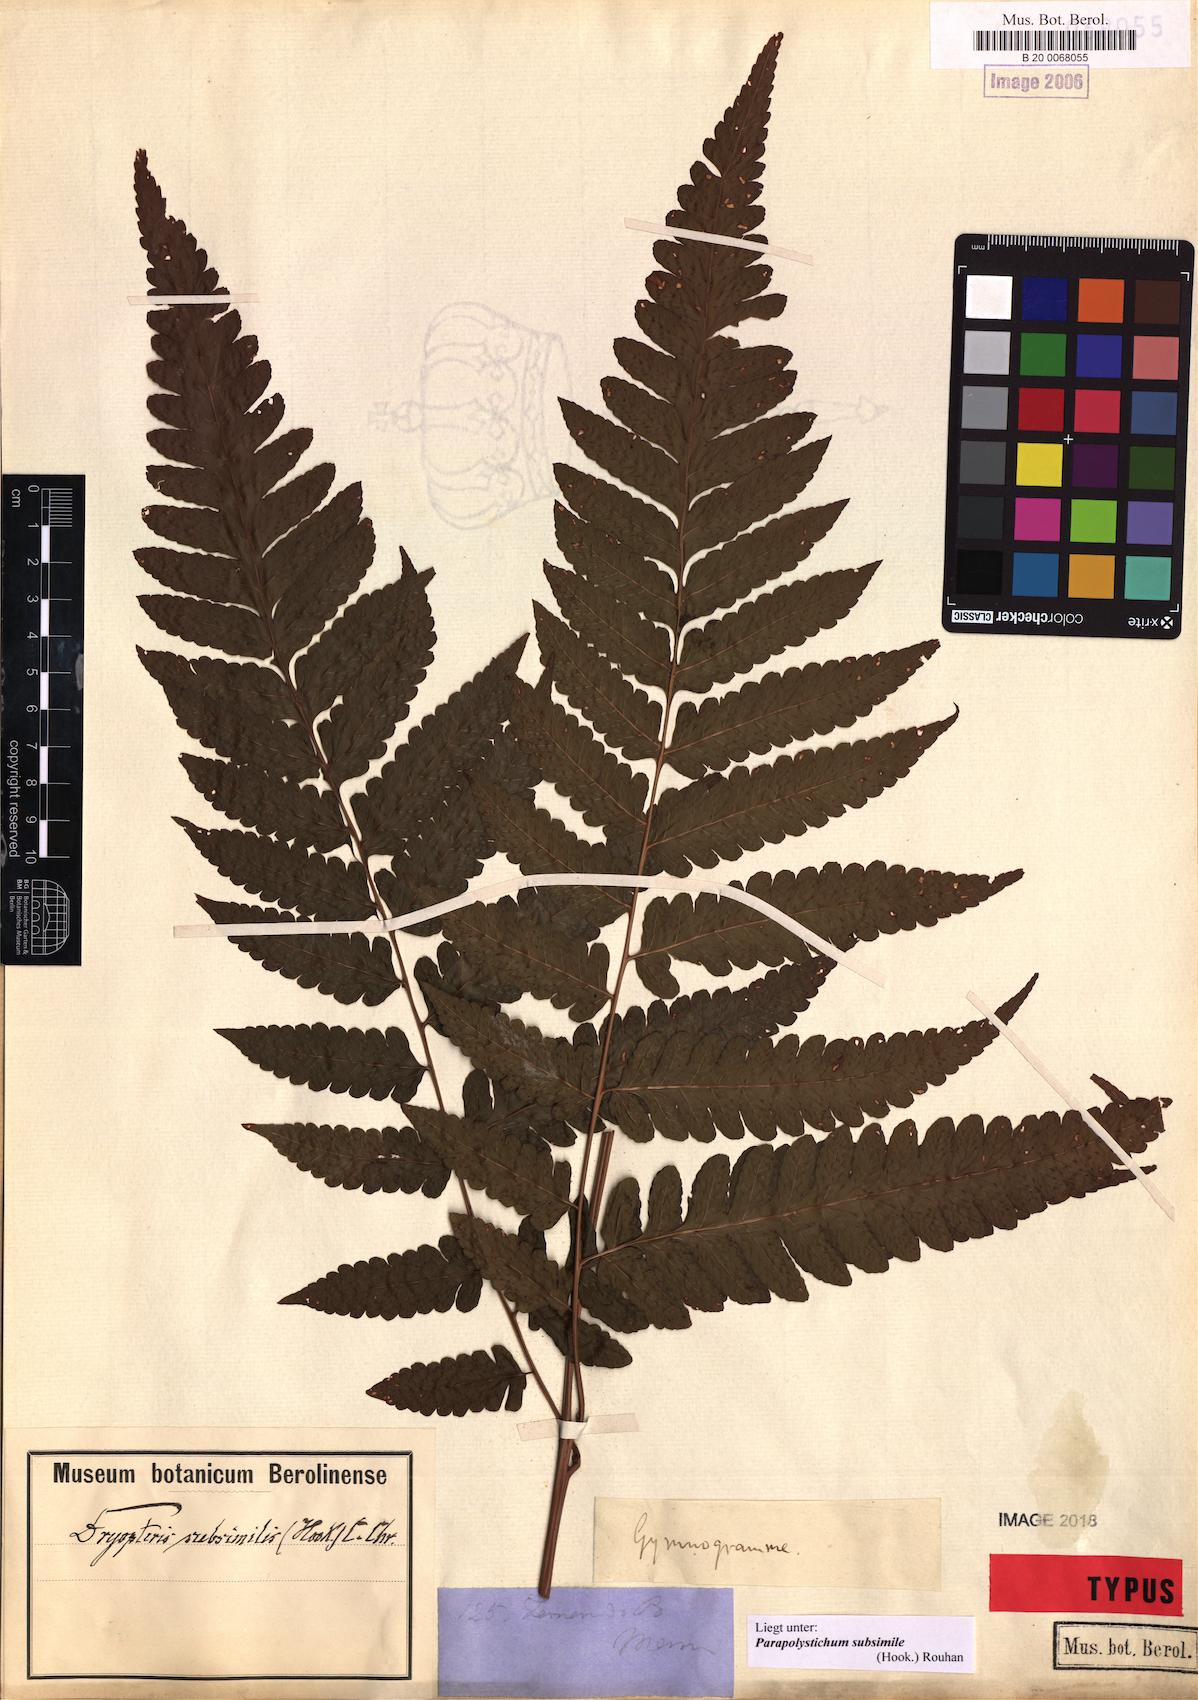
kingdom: Plantae
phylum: Tracheophyta
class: Polypodiopsida
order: Polypodiales
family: Dryopteridaceae
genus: Parapolystichum
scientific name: Parapolystichum subsimile
